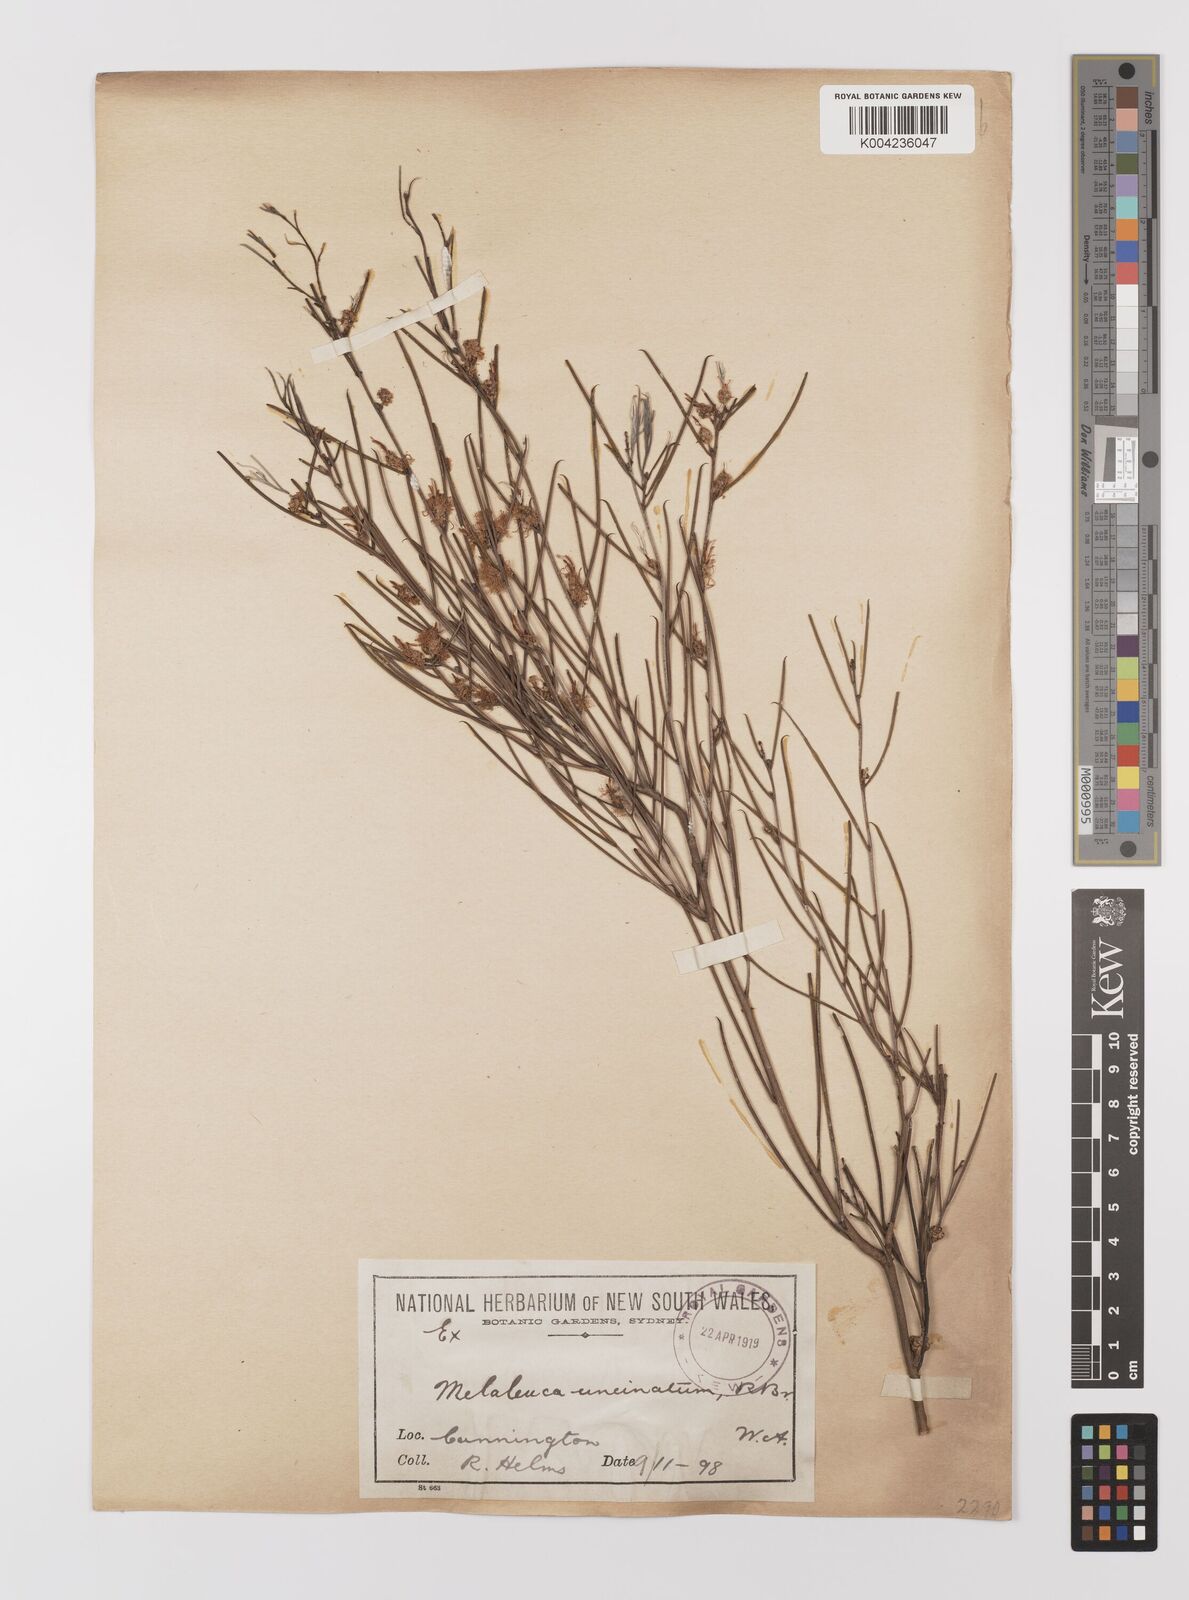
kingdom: Plantae
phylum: Tracheophyta
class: Magnoliopsida
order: Myrtales
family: Myrtaceae
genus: Melaleuca
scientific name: Melaleuca uncinata
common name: Broom honey myrtle
